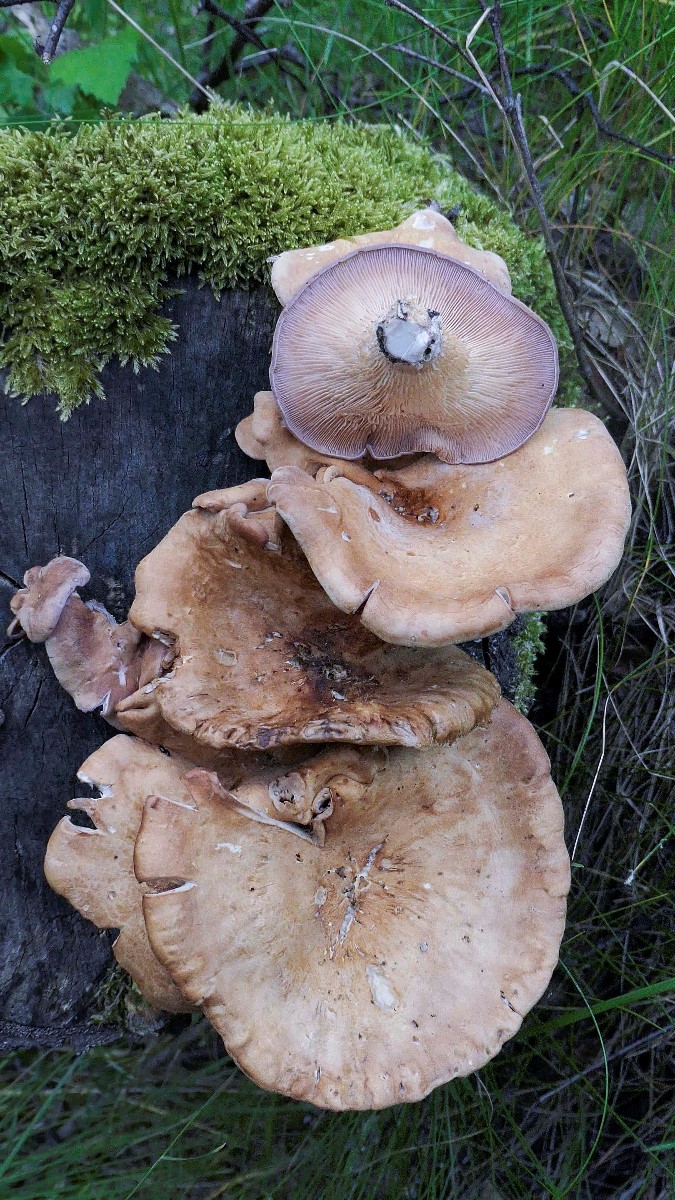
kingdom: Fungi
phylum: Basidiomycota
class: Agaricomycetes
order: Polyporales
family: Panaceae
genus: Panus
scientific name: Panus conchatus
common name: filtstokket læderhat
